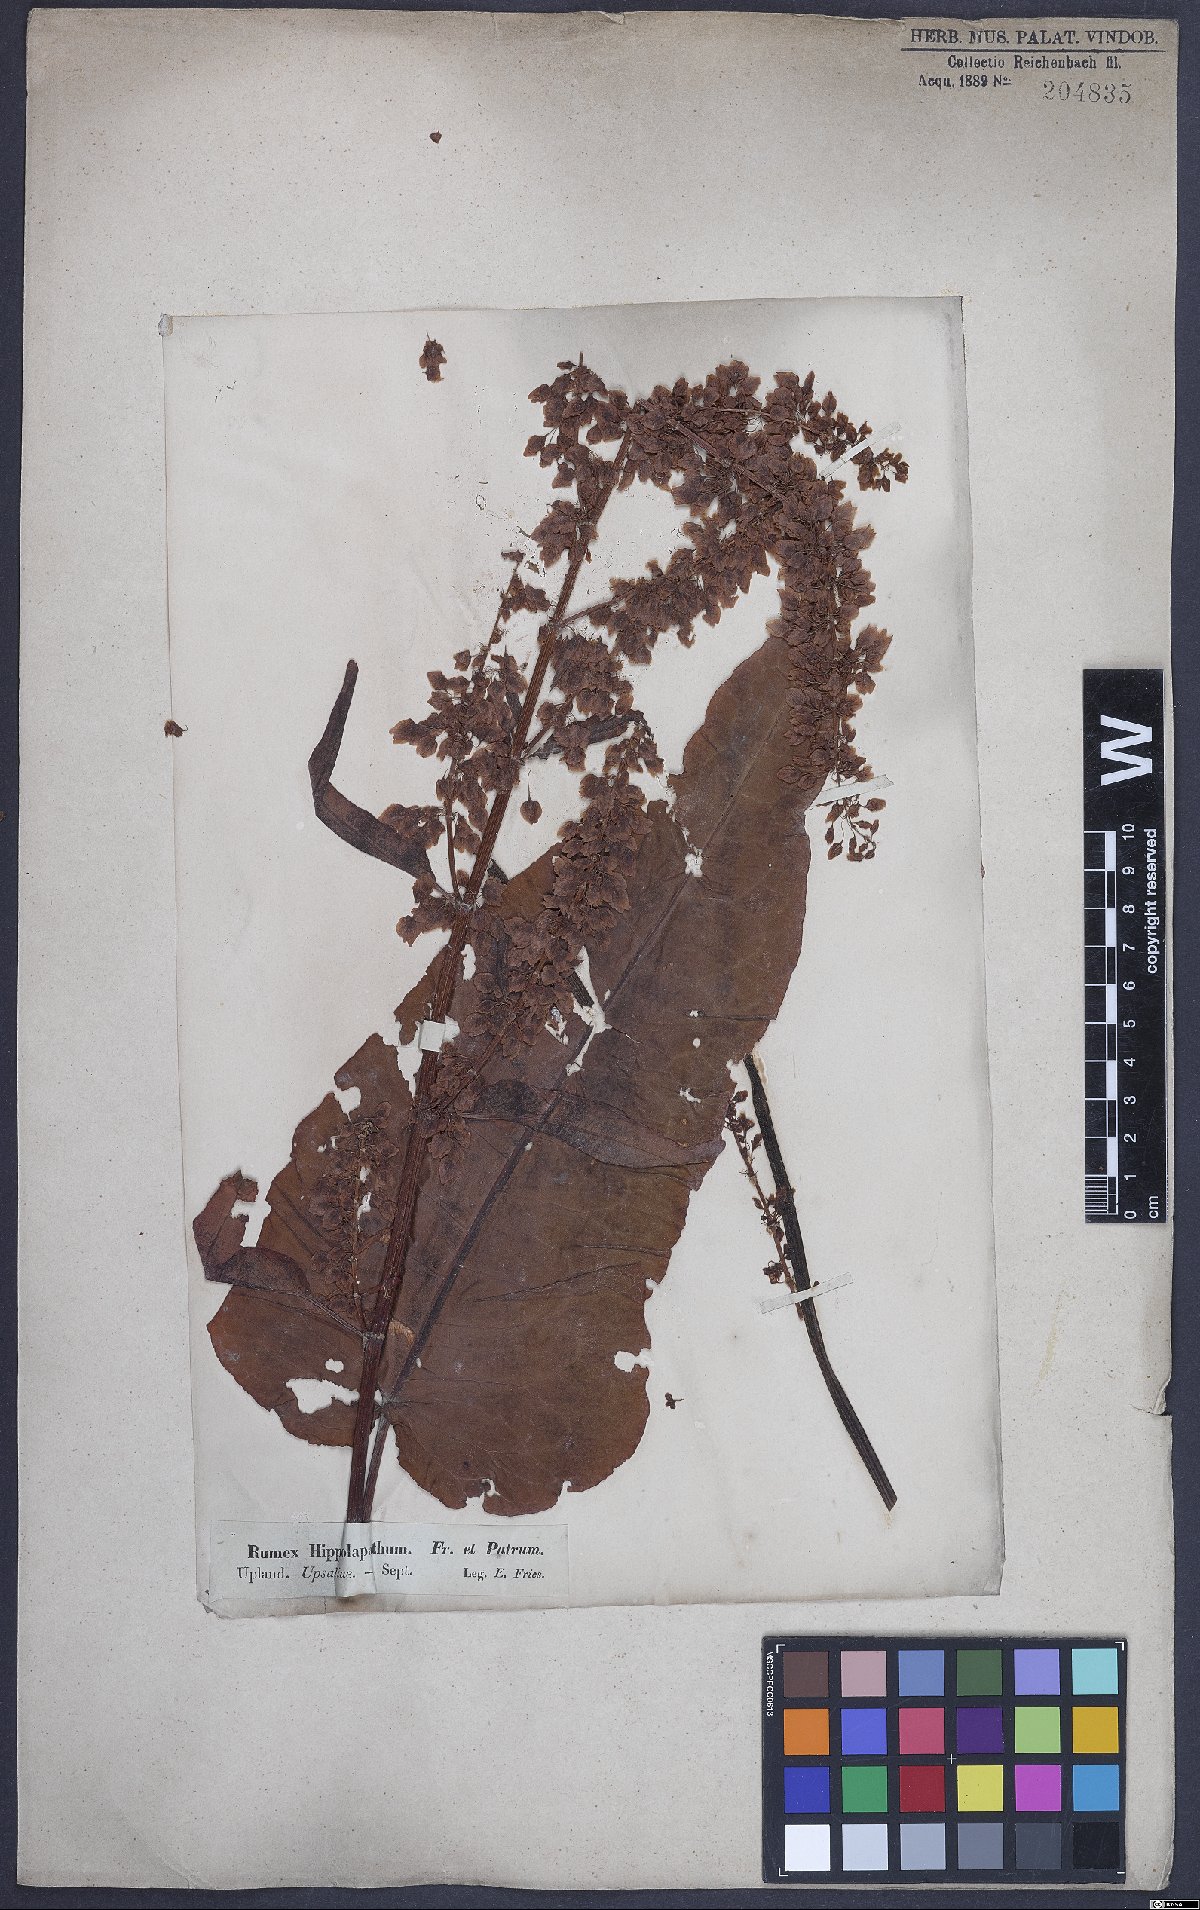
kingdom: Plantae
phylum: Tracheophyta
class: Magnoliopsida
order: Caryophyllales
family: Polygonaceae
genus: Rumex
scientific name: Rumex aquaticus
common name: Scottish dock
